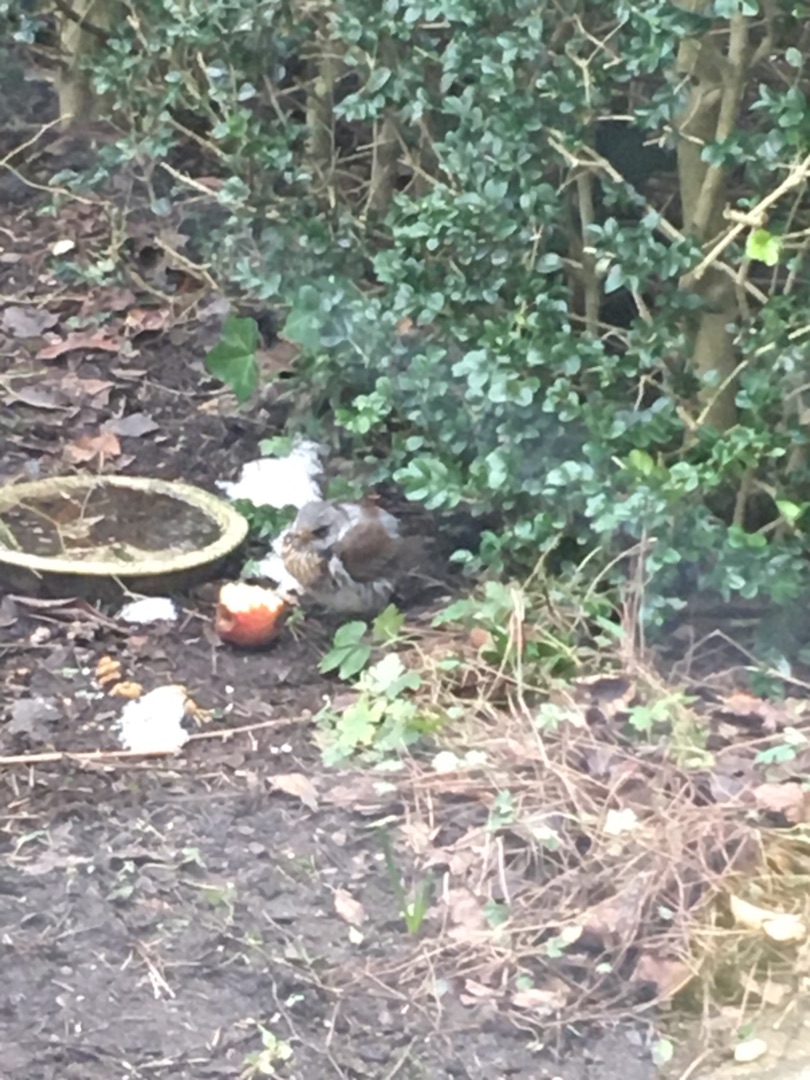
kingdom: Animalia
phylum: Chordata
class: Aves
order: Passeriformes
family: Turdidae
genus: Turdus
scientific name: Turdus pilaris
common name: Sjagger
